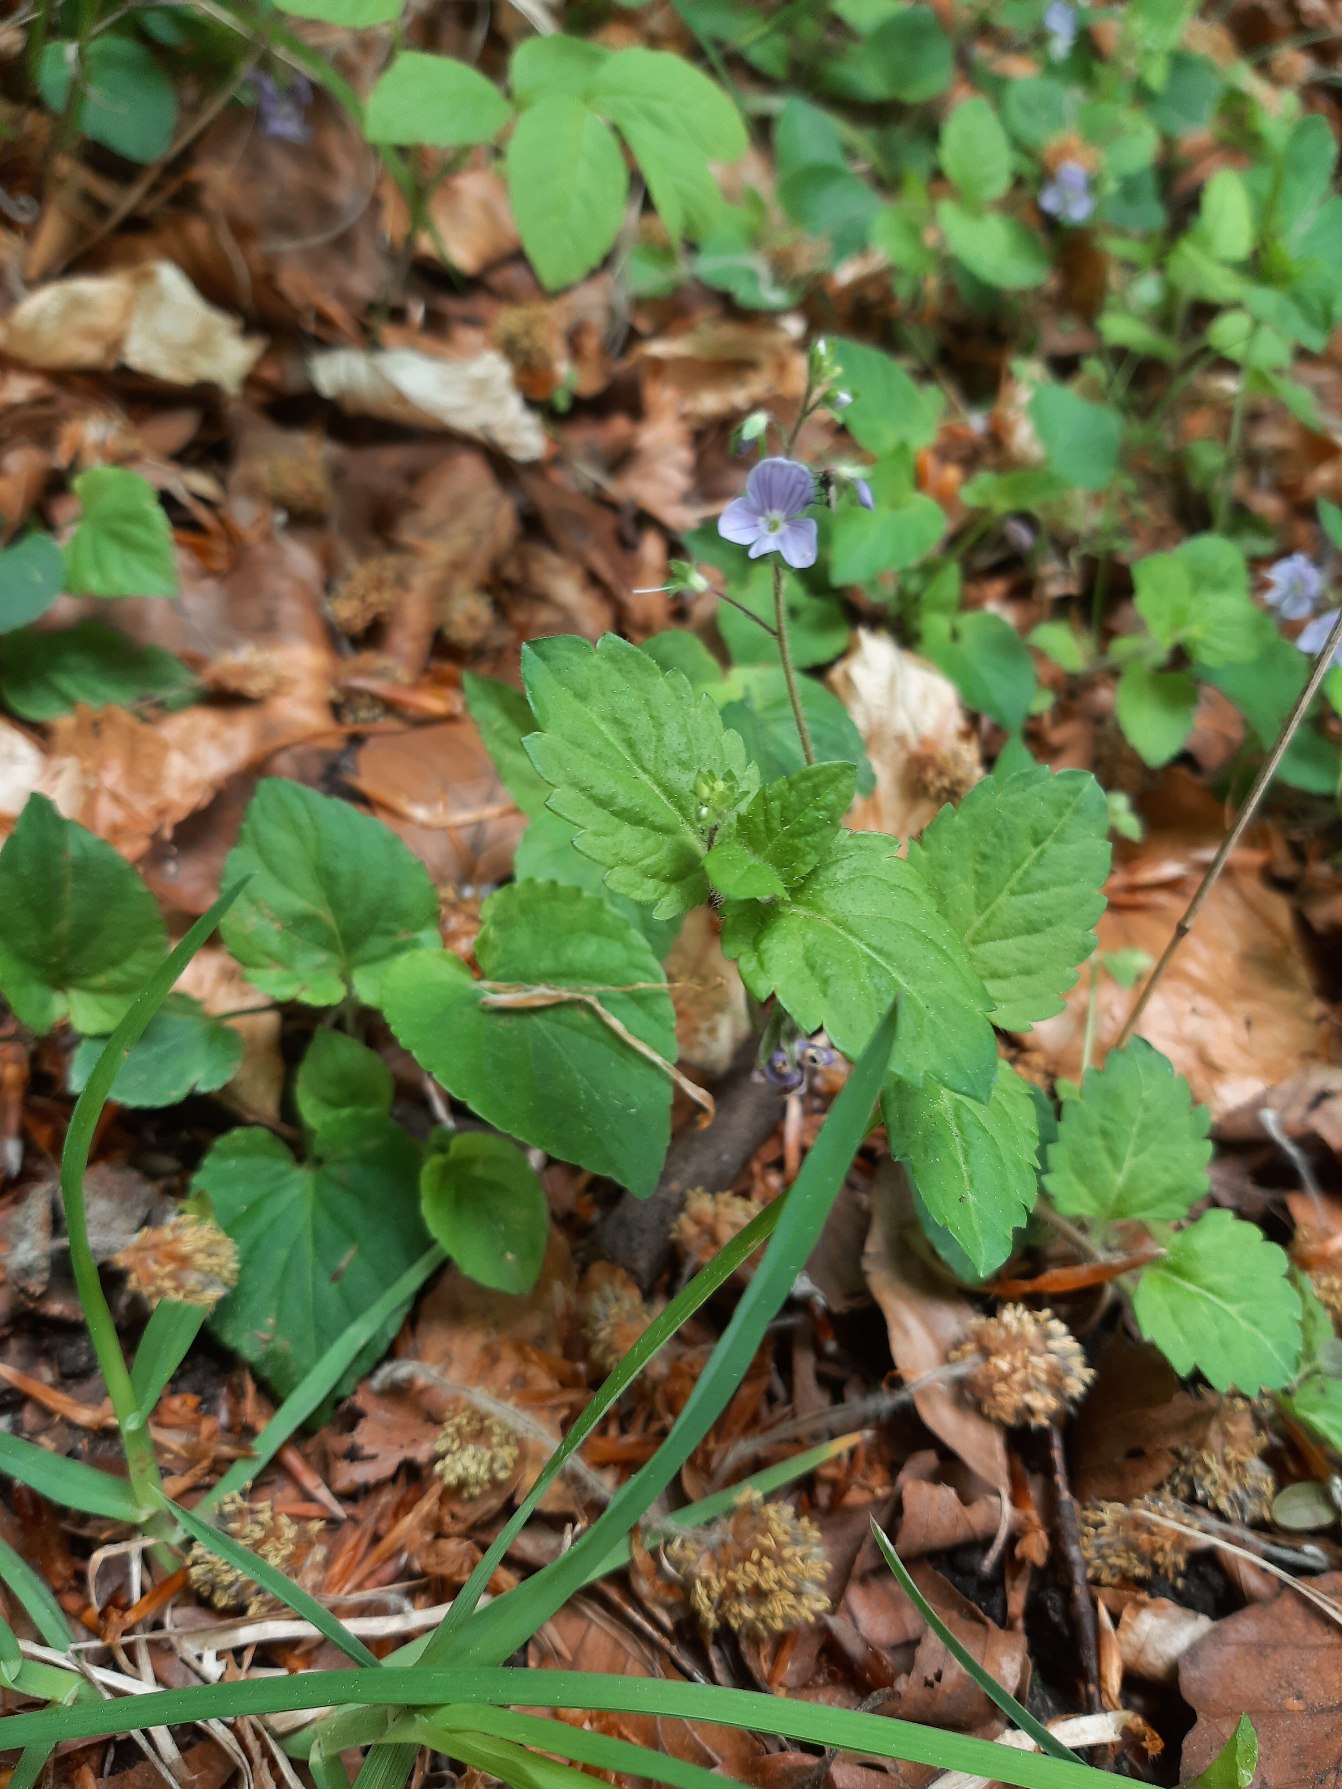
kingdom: Plantae
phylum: Tracheophyta
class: Magnoliopsida
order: Lamiales
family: Plantaginaceae
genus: Veronica
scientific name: Veronica montana
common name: Bjerg-ærenpris
